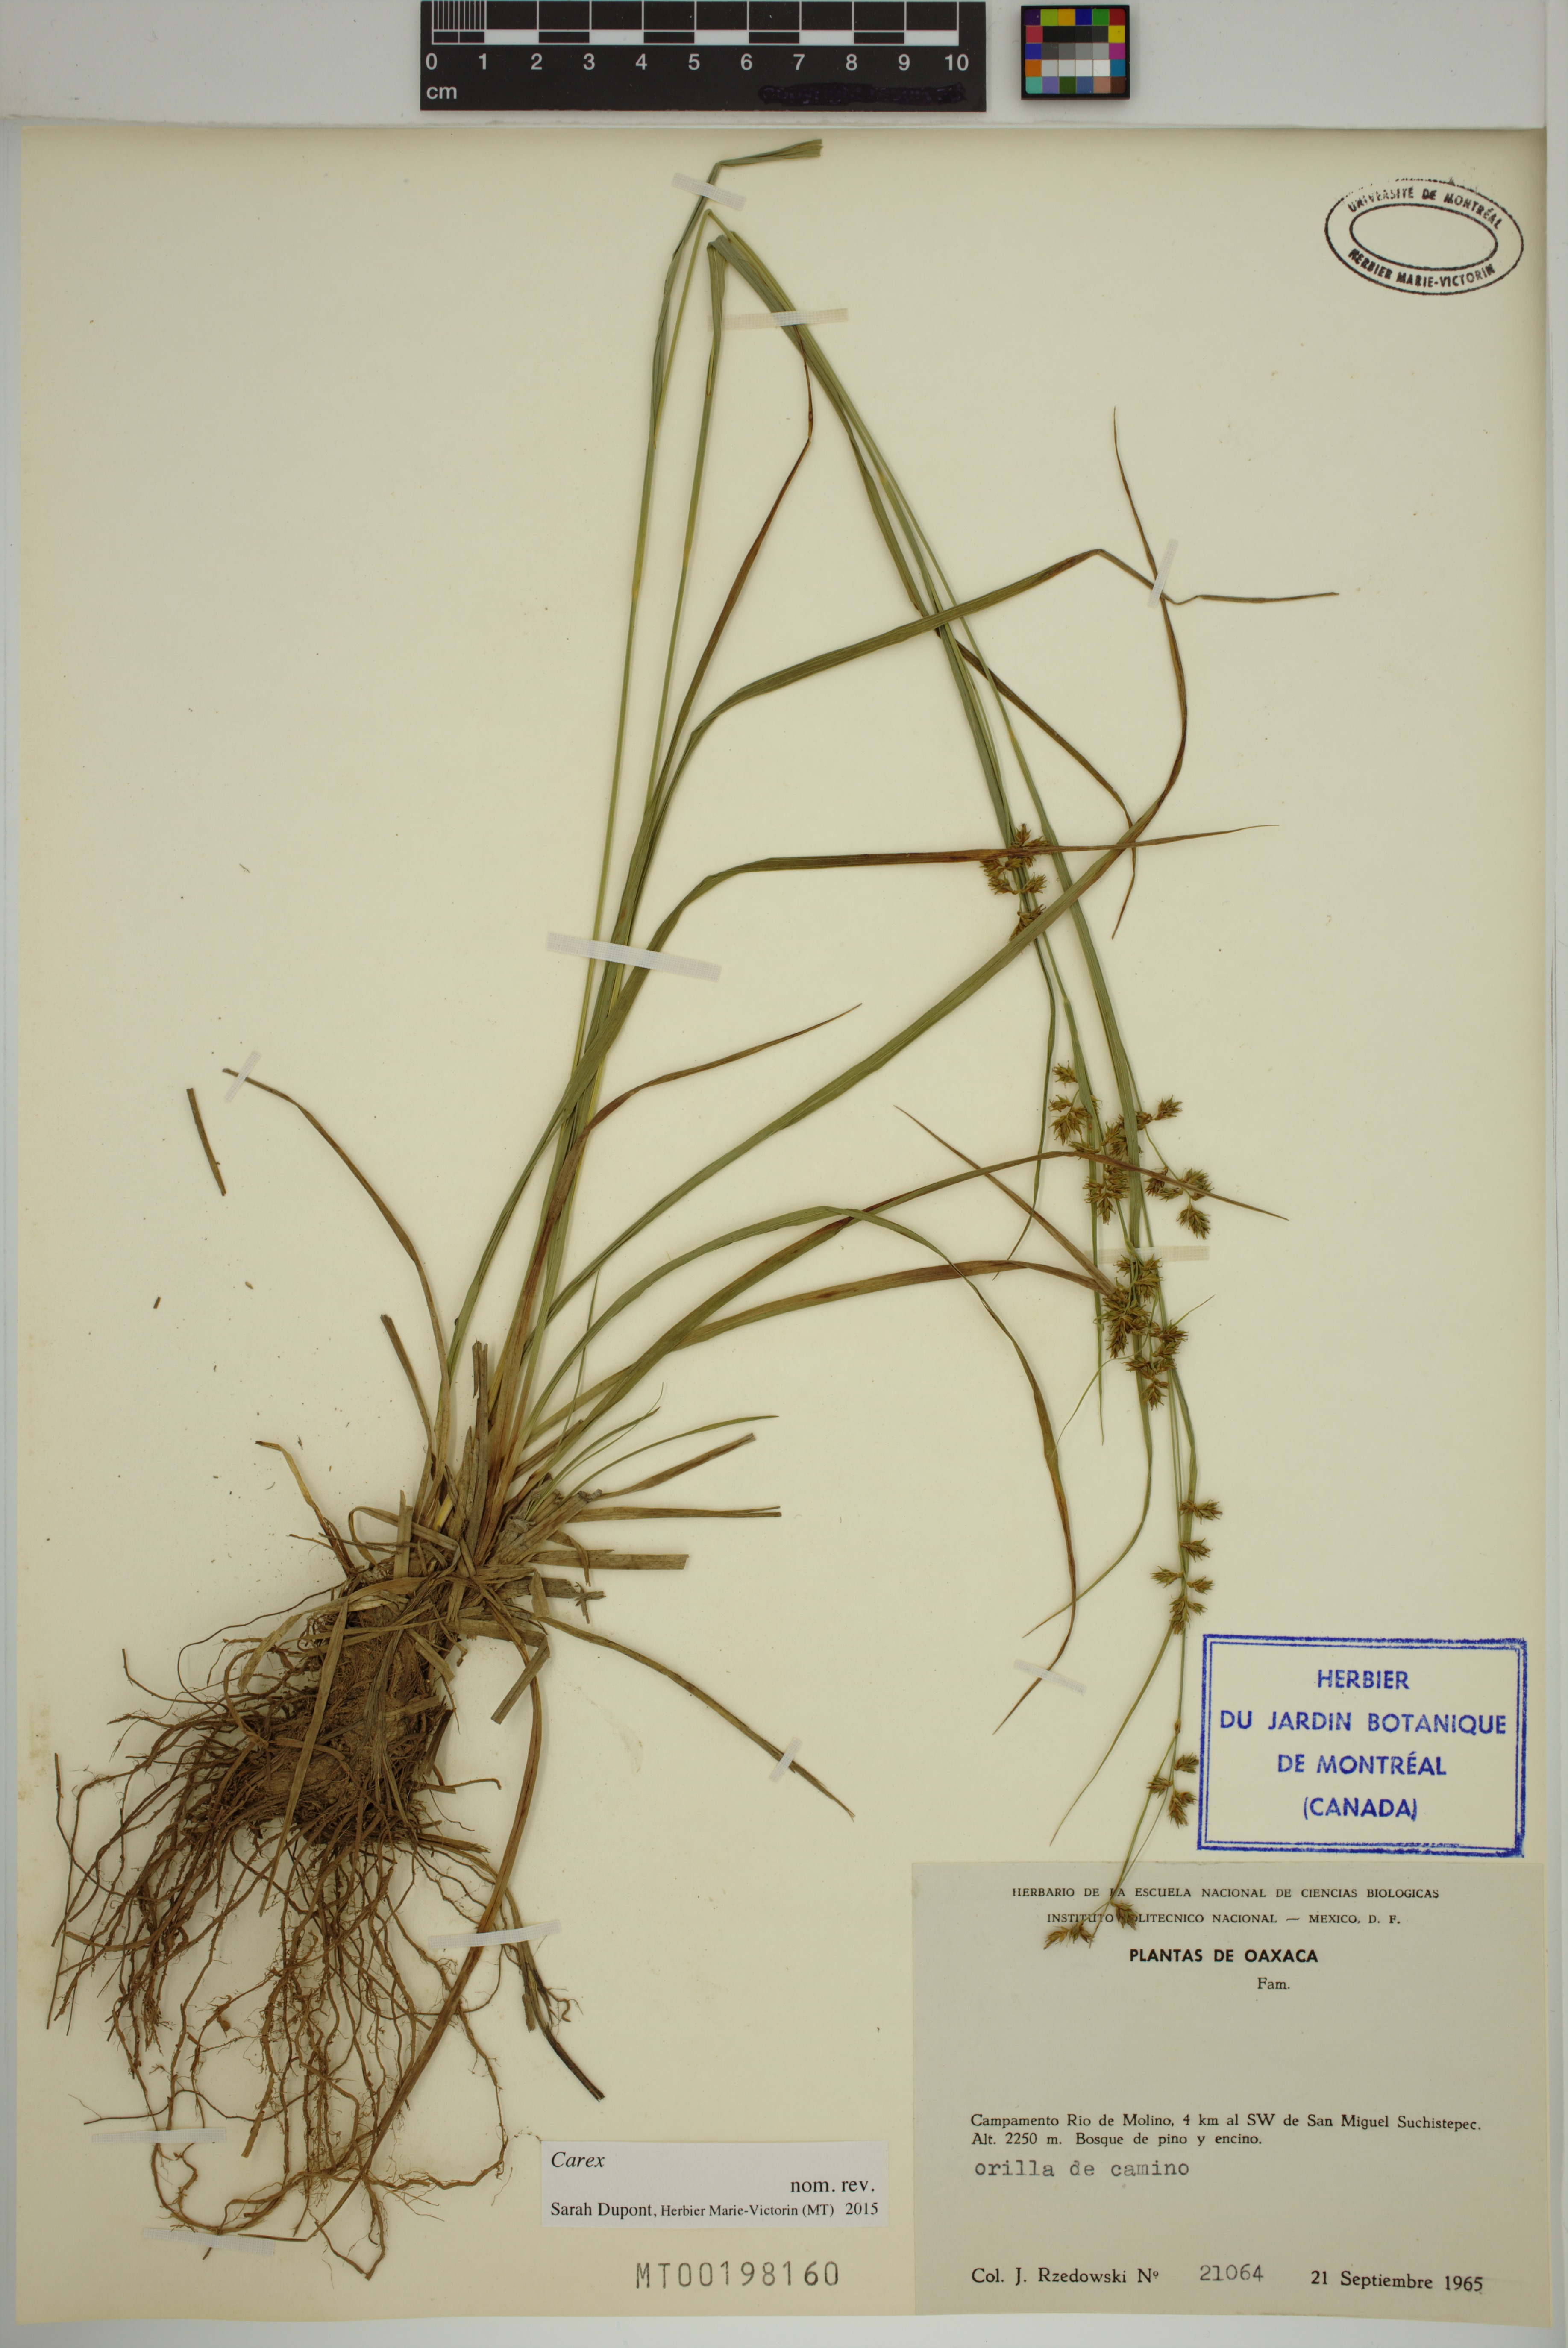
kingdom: Plantae
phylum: Tracheophyta
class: Liliopsida
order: Poales
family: Cyperaceae
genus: Carex
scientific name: Carex
